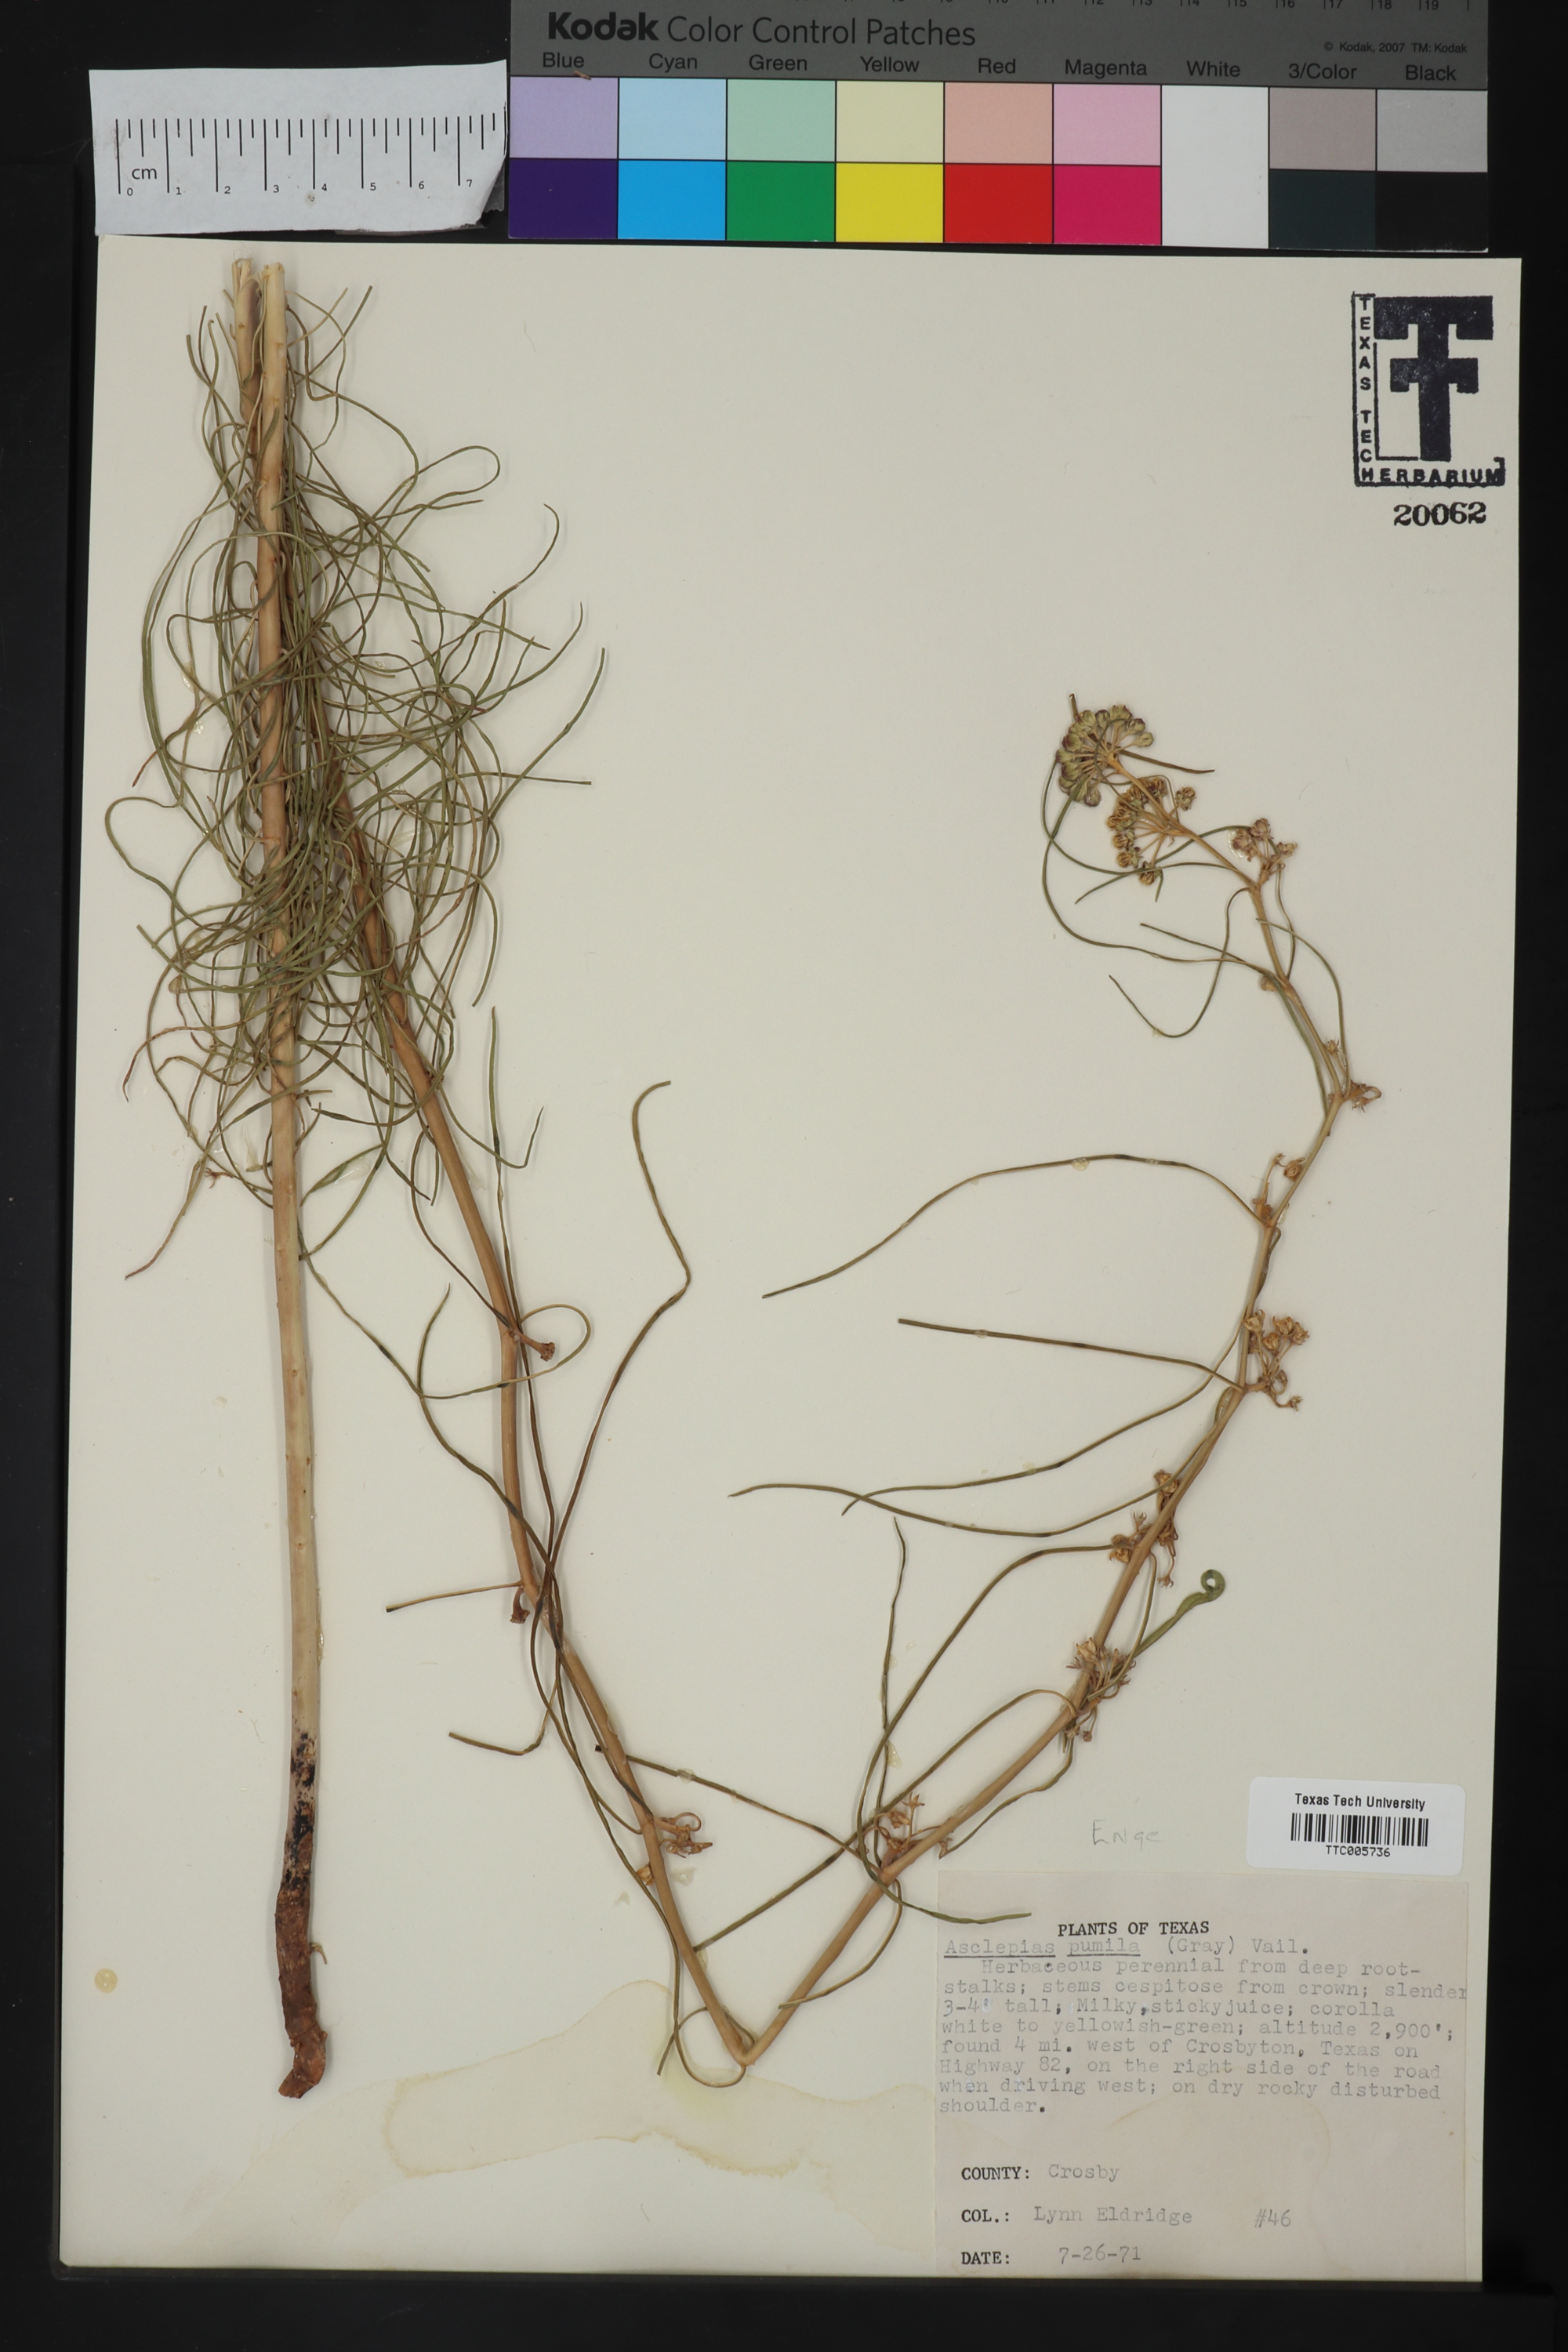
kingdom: Plantae
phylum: Tracheophyta
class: Magnoliopsida
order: Gentianales
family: Apocynaceae
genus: Asclepias
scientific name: Asclepias pumila
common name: Dwarf milkweed
